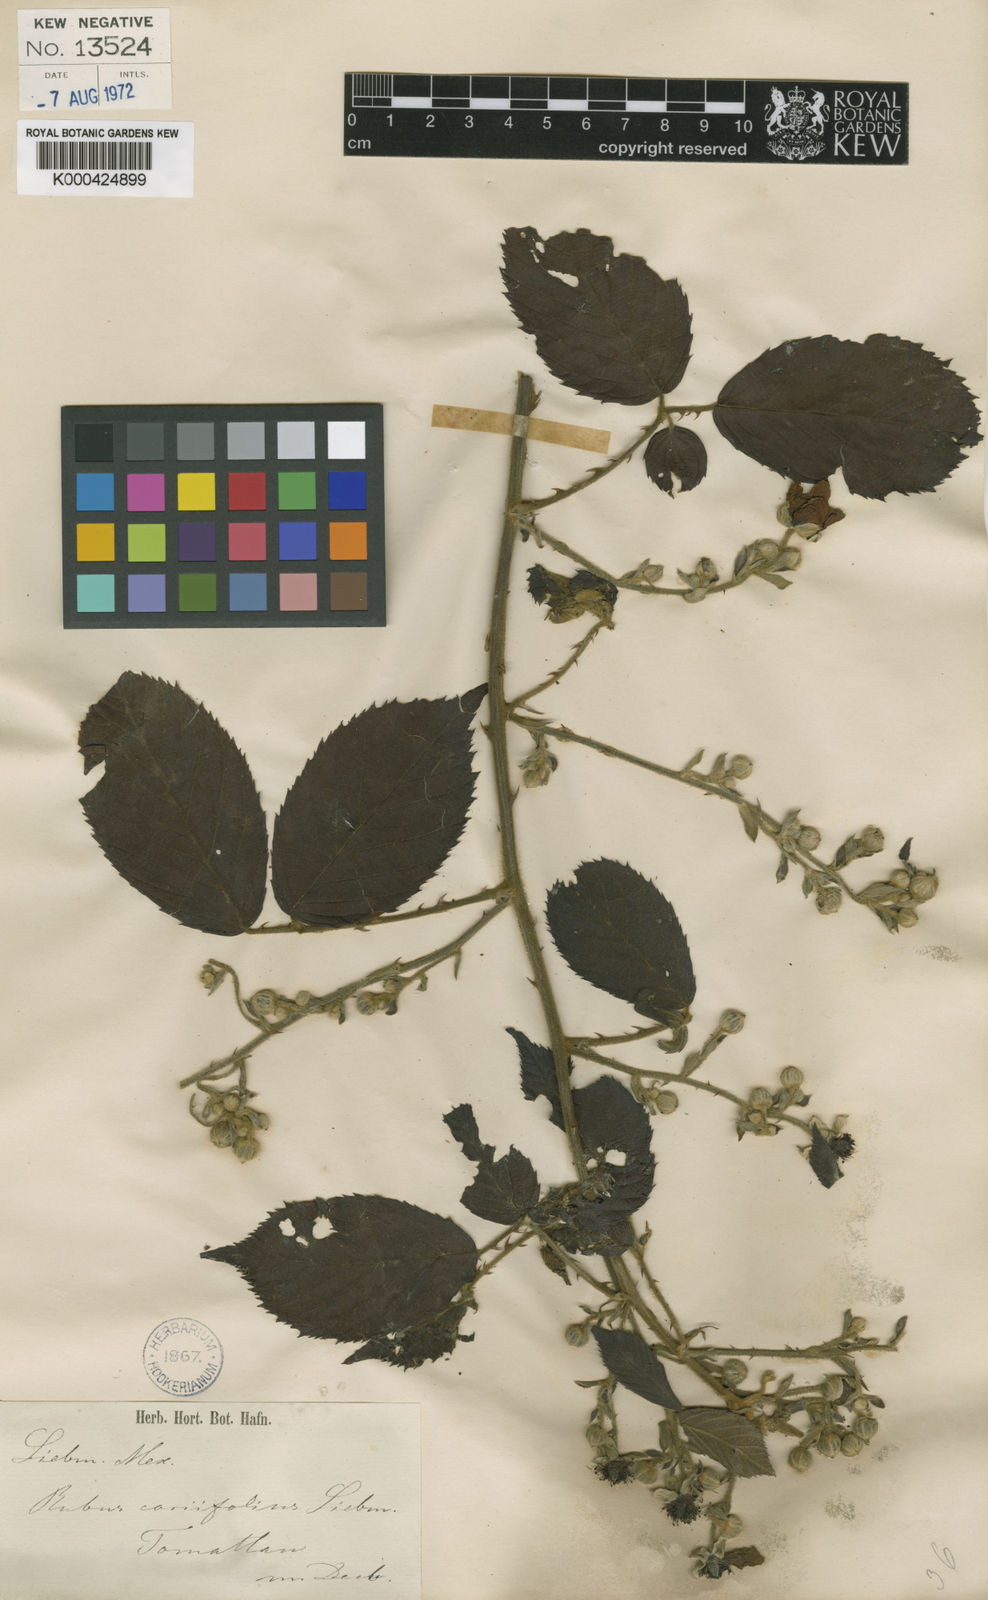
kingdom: Plantae
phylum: Tracheophyta
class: Magnoliopsida
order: Rosales
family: Rosaceae
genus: Rubus
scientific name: Rubus coriifolius
